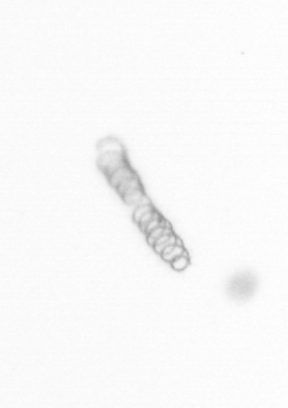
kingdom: Chromista
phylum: Ochrophyta
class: Bacillariophyceae
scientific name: Bacillariophyceae
